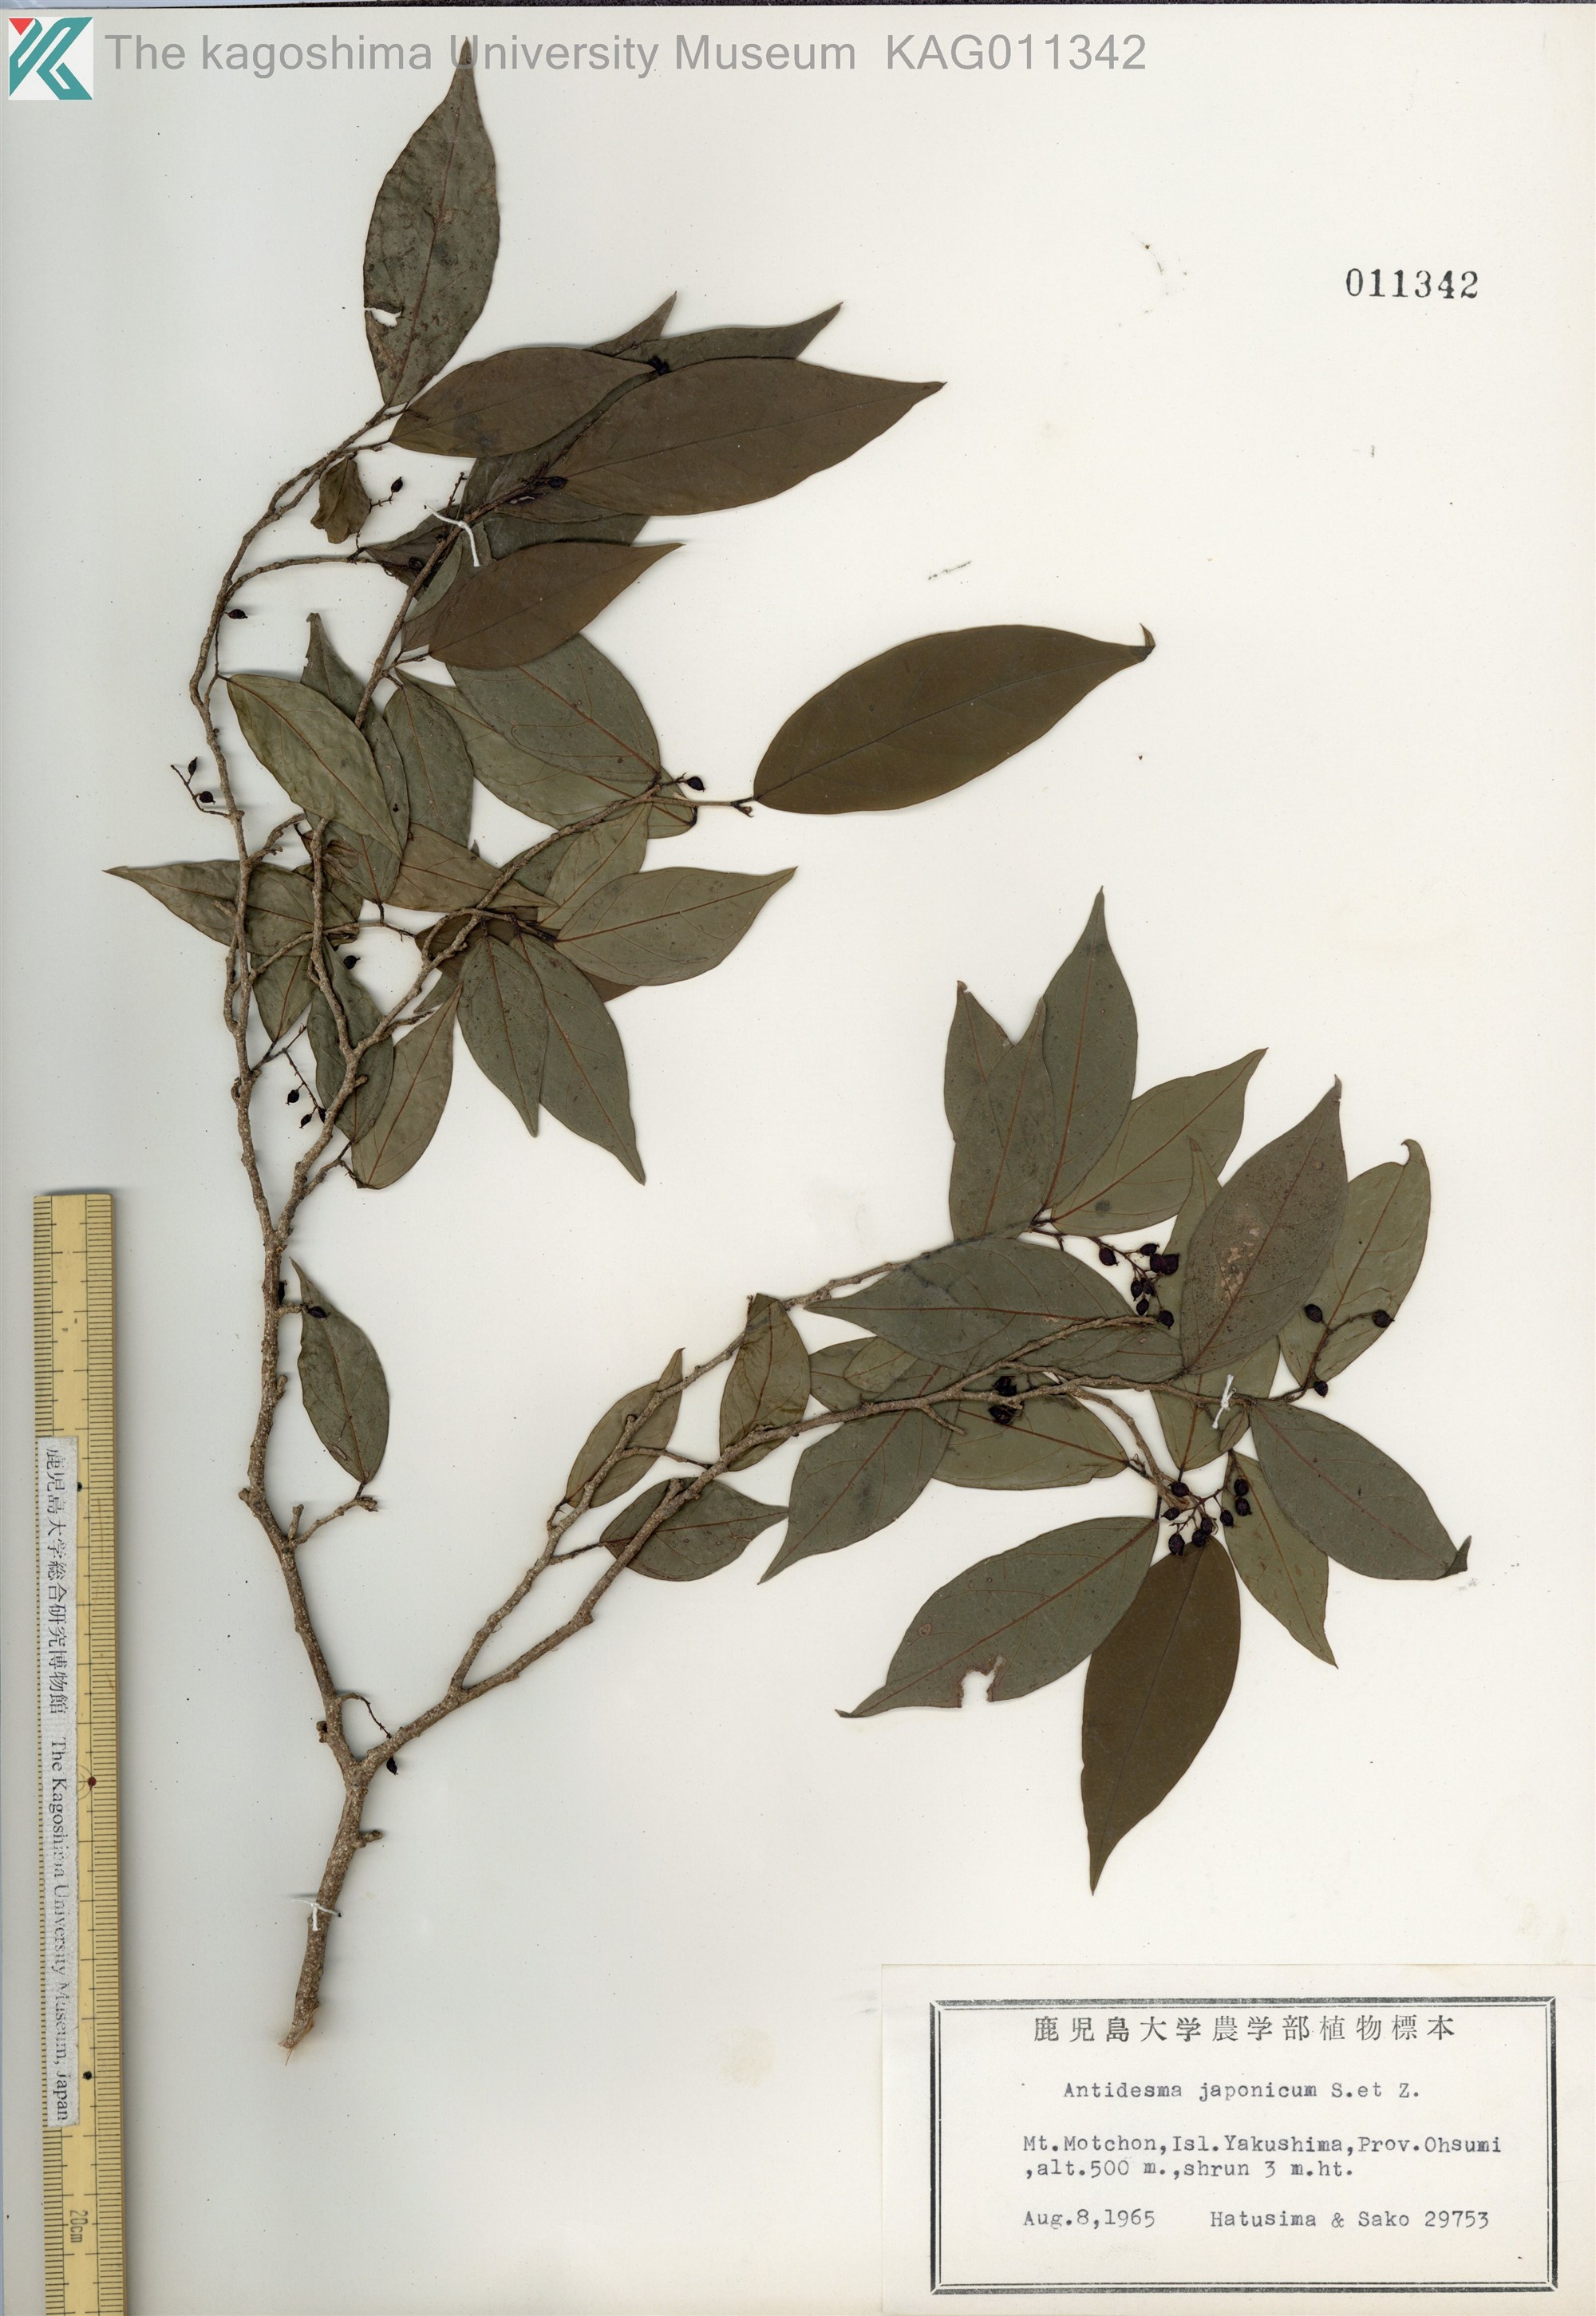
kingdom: Plantae
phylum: Tracheophyta
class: Magnoliopsida
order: Malpighiales
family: Phyllanthaceae
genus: Antidesma
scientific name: Antidesma japonicum
